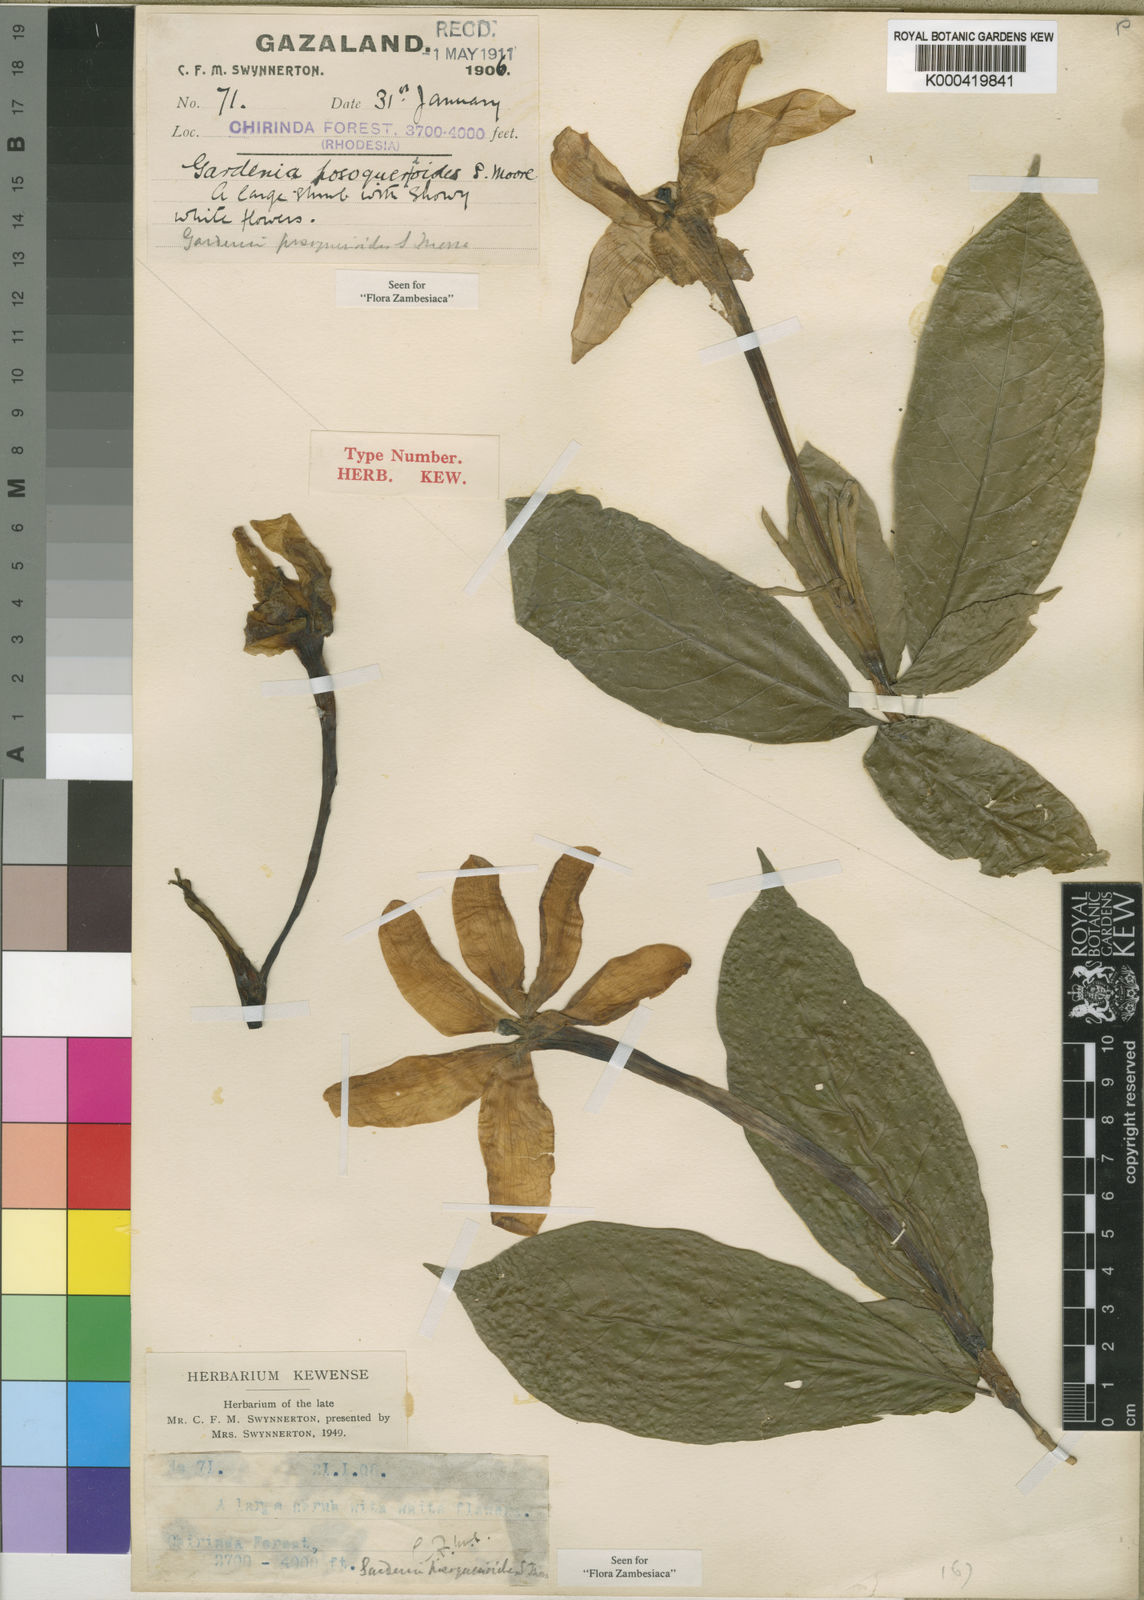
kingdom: Plantae
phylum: Tracheophyta
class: Magnoliopsida
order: Gentianales
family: Rubiaceae
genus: Gardenia
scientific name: Gardenia posoquerioides
